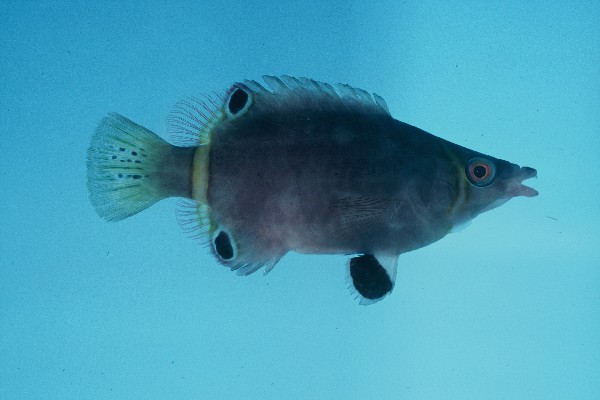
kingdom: Animalia
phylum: Chordata
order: Perciformes
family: Labridae
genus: Wetmorella
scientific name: Wetmorella nigropinnata
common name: Sharpnose wrasse
